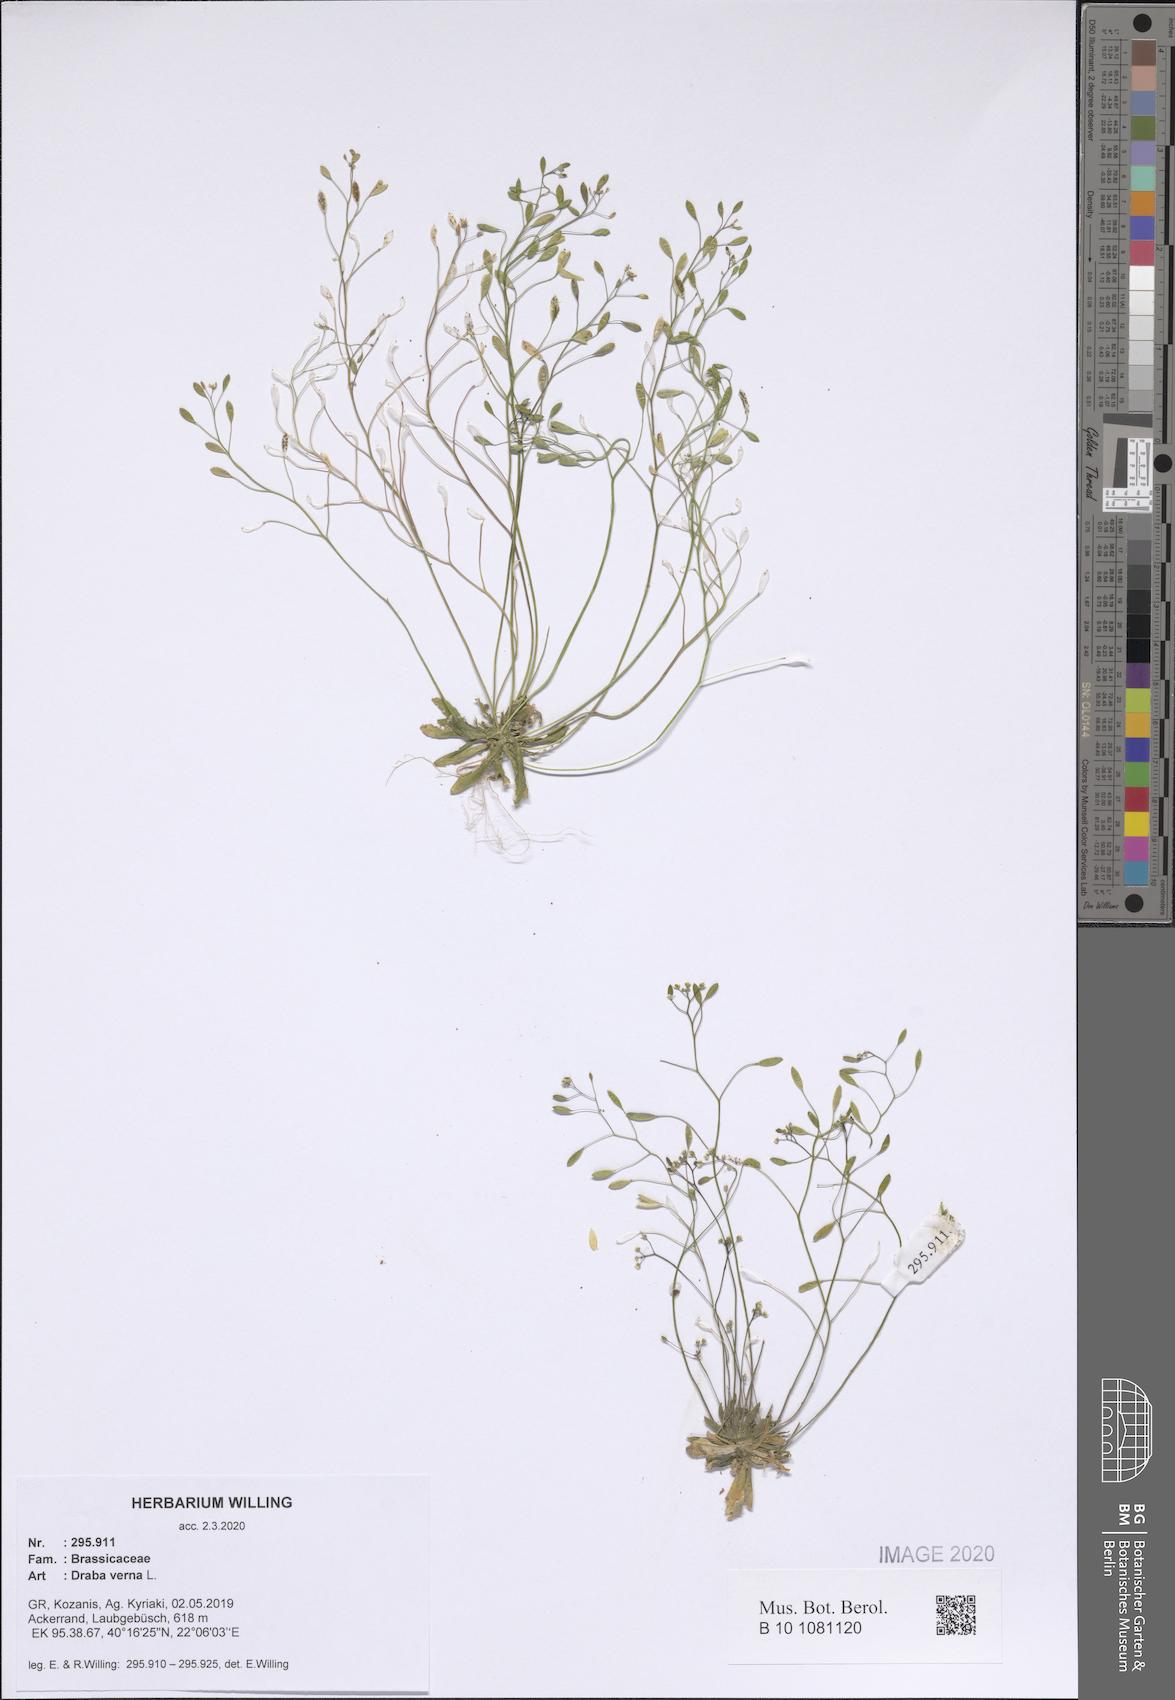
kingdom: Plantae
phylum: Tracheophyta
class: Magnoliopsida
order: Brassicales
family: Brassicaceae
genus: Draba
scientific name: Draba verna
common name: Spring draba
